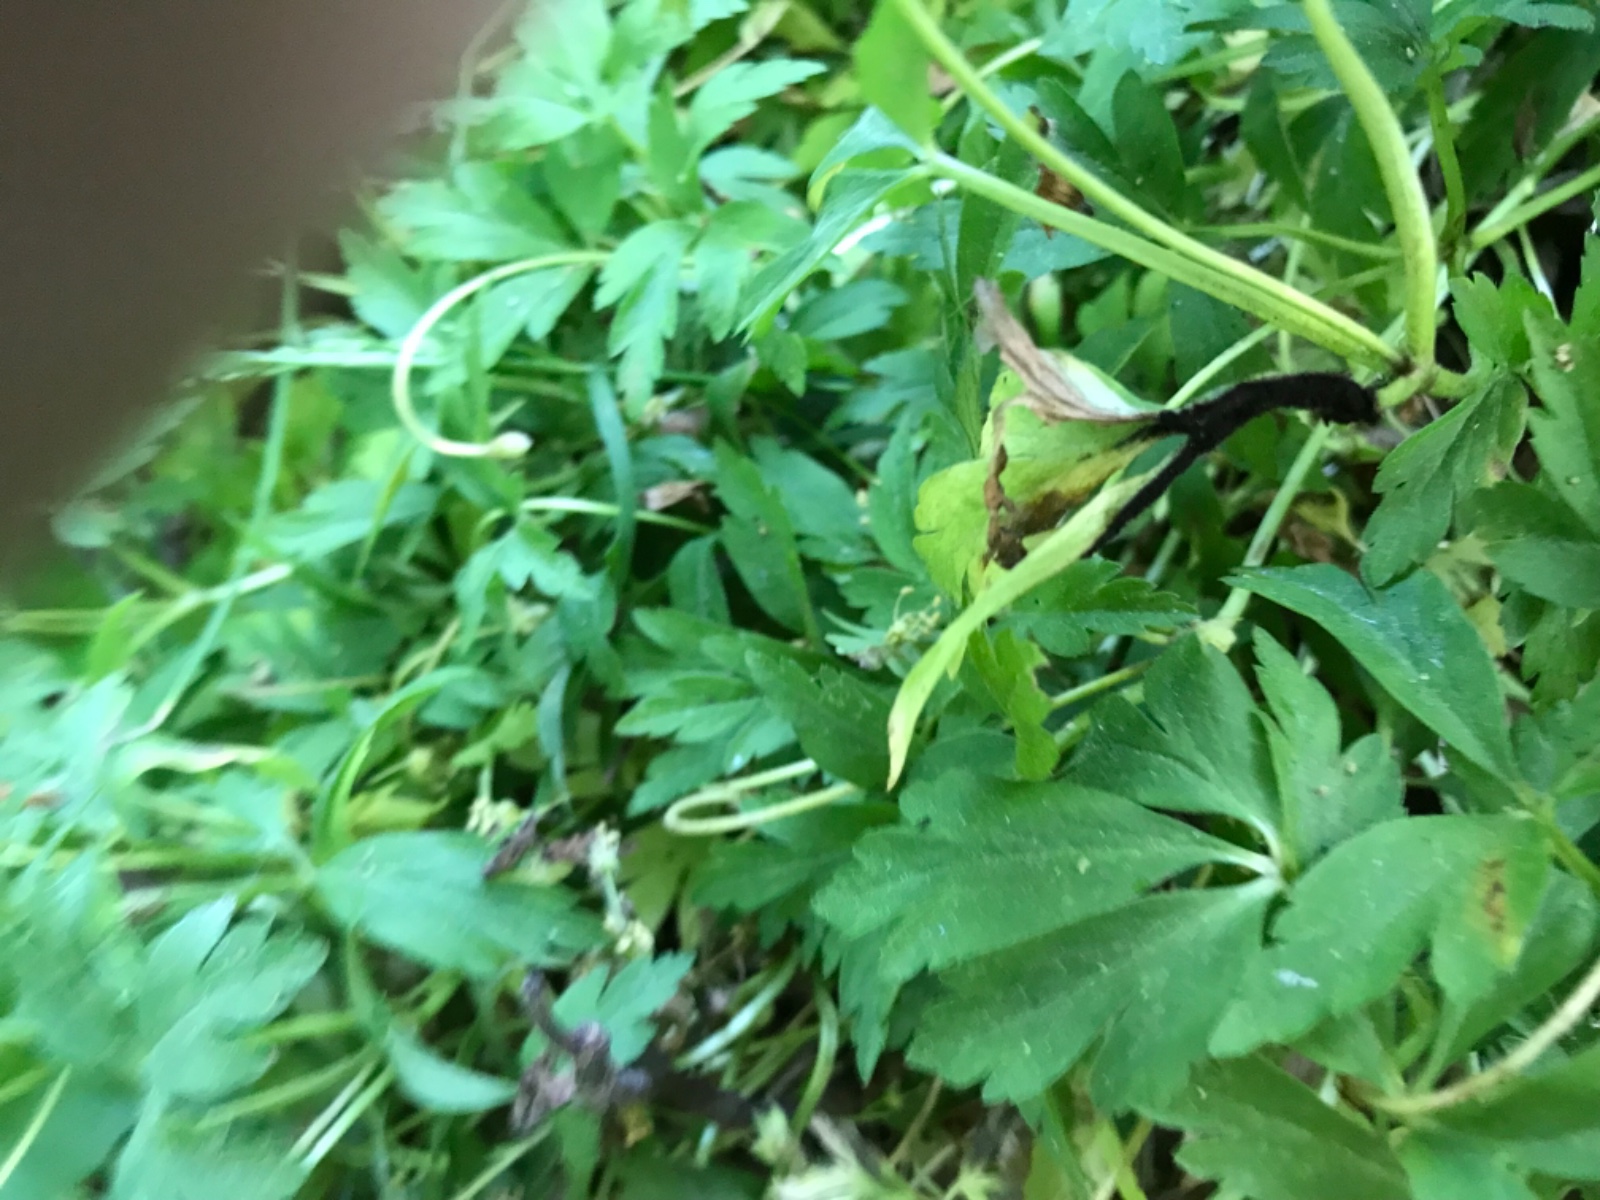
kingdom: Fungi
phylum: Basidiomycota
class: Ustilaginomycetes
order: Urocystidales
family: Urocystidaceae
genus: Urocystis
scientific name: Urocystis anemones
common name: anemone-brand
